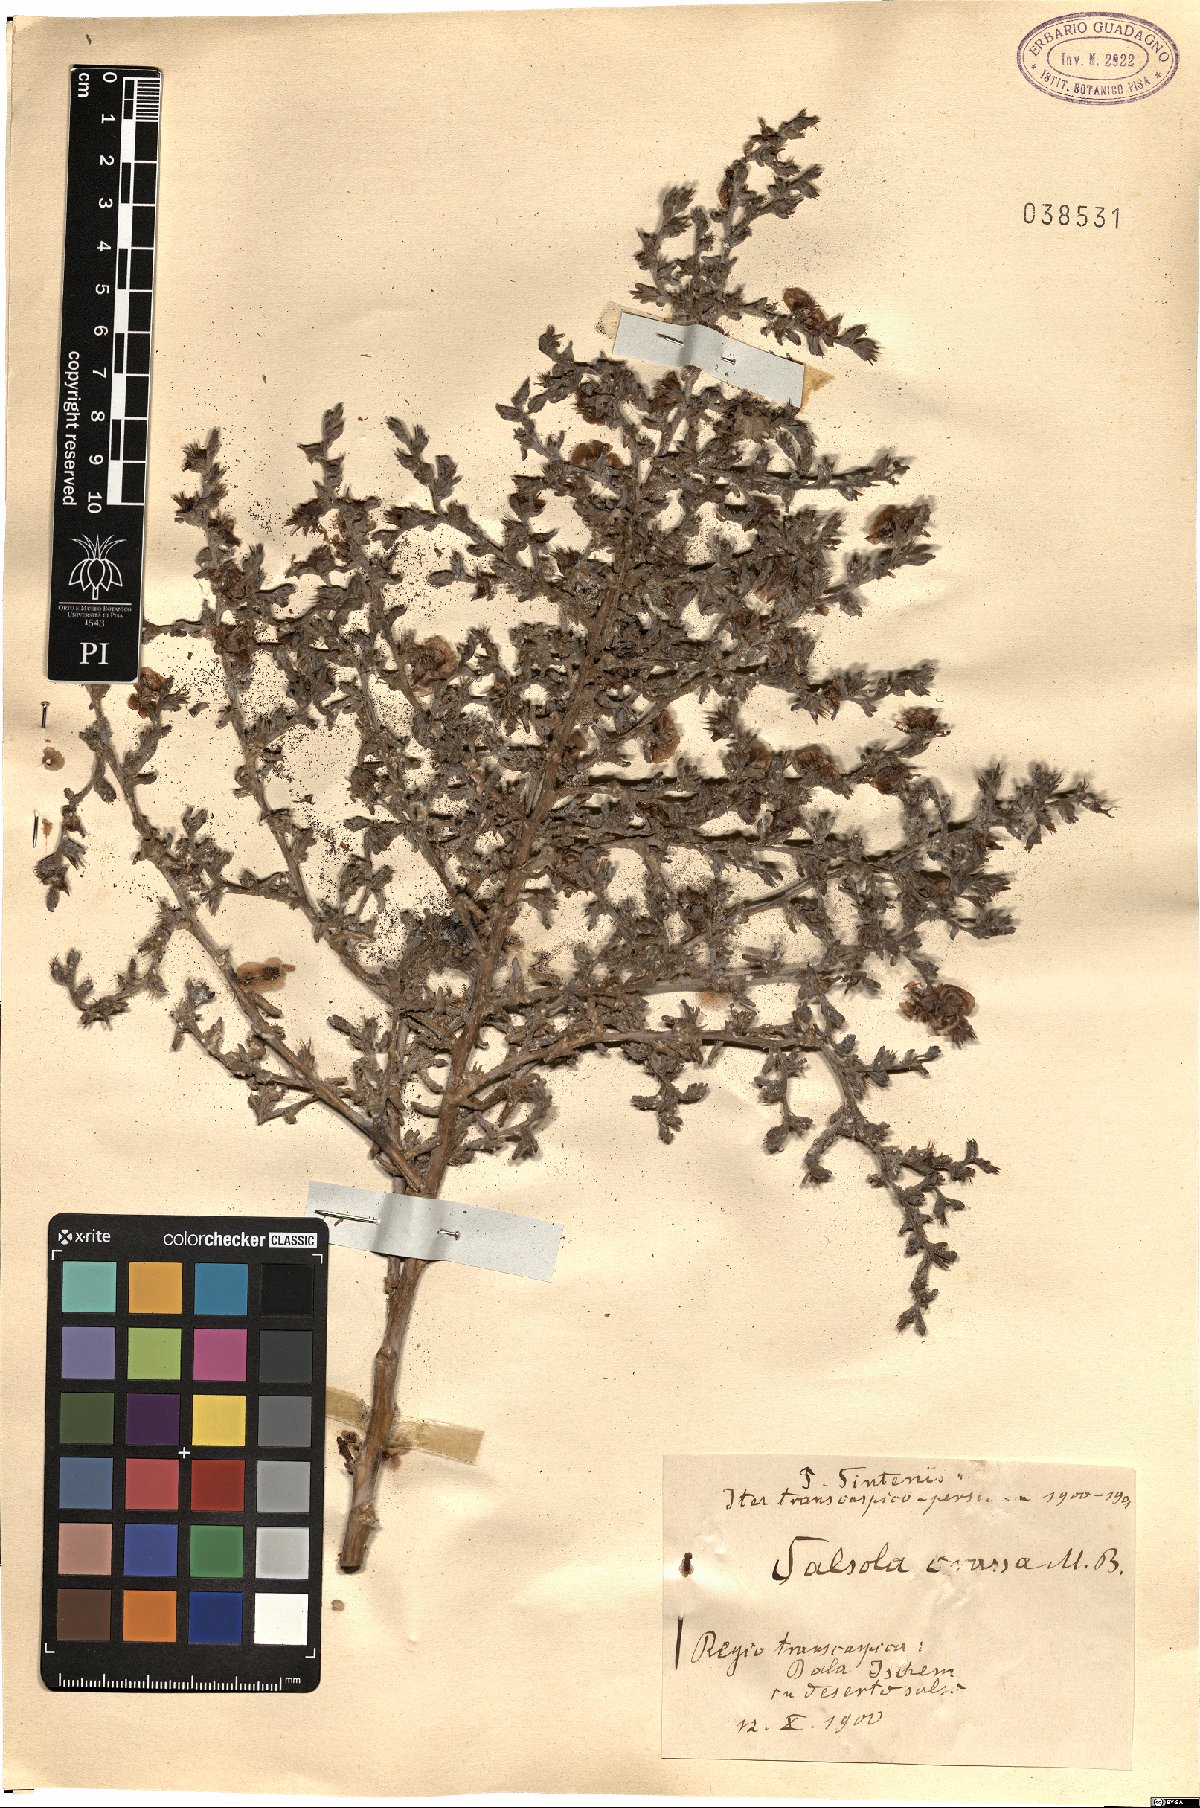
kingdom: Plantae
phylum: Tracheophyta
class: Magnoliopsida
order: Caryophyllales
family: Amaranthaceae
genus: Climacoptera
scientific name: Climacoptera crassa
